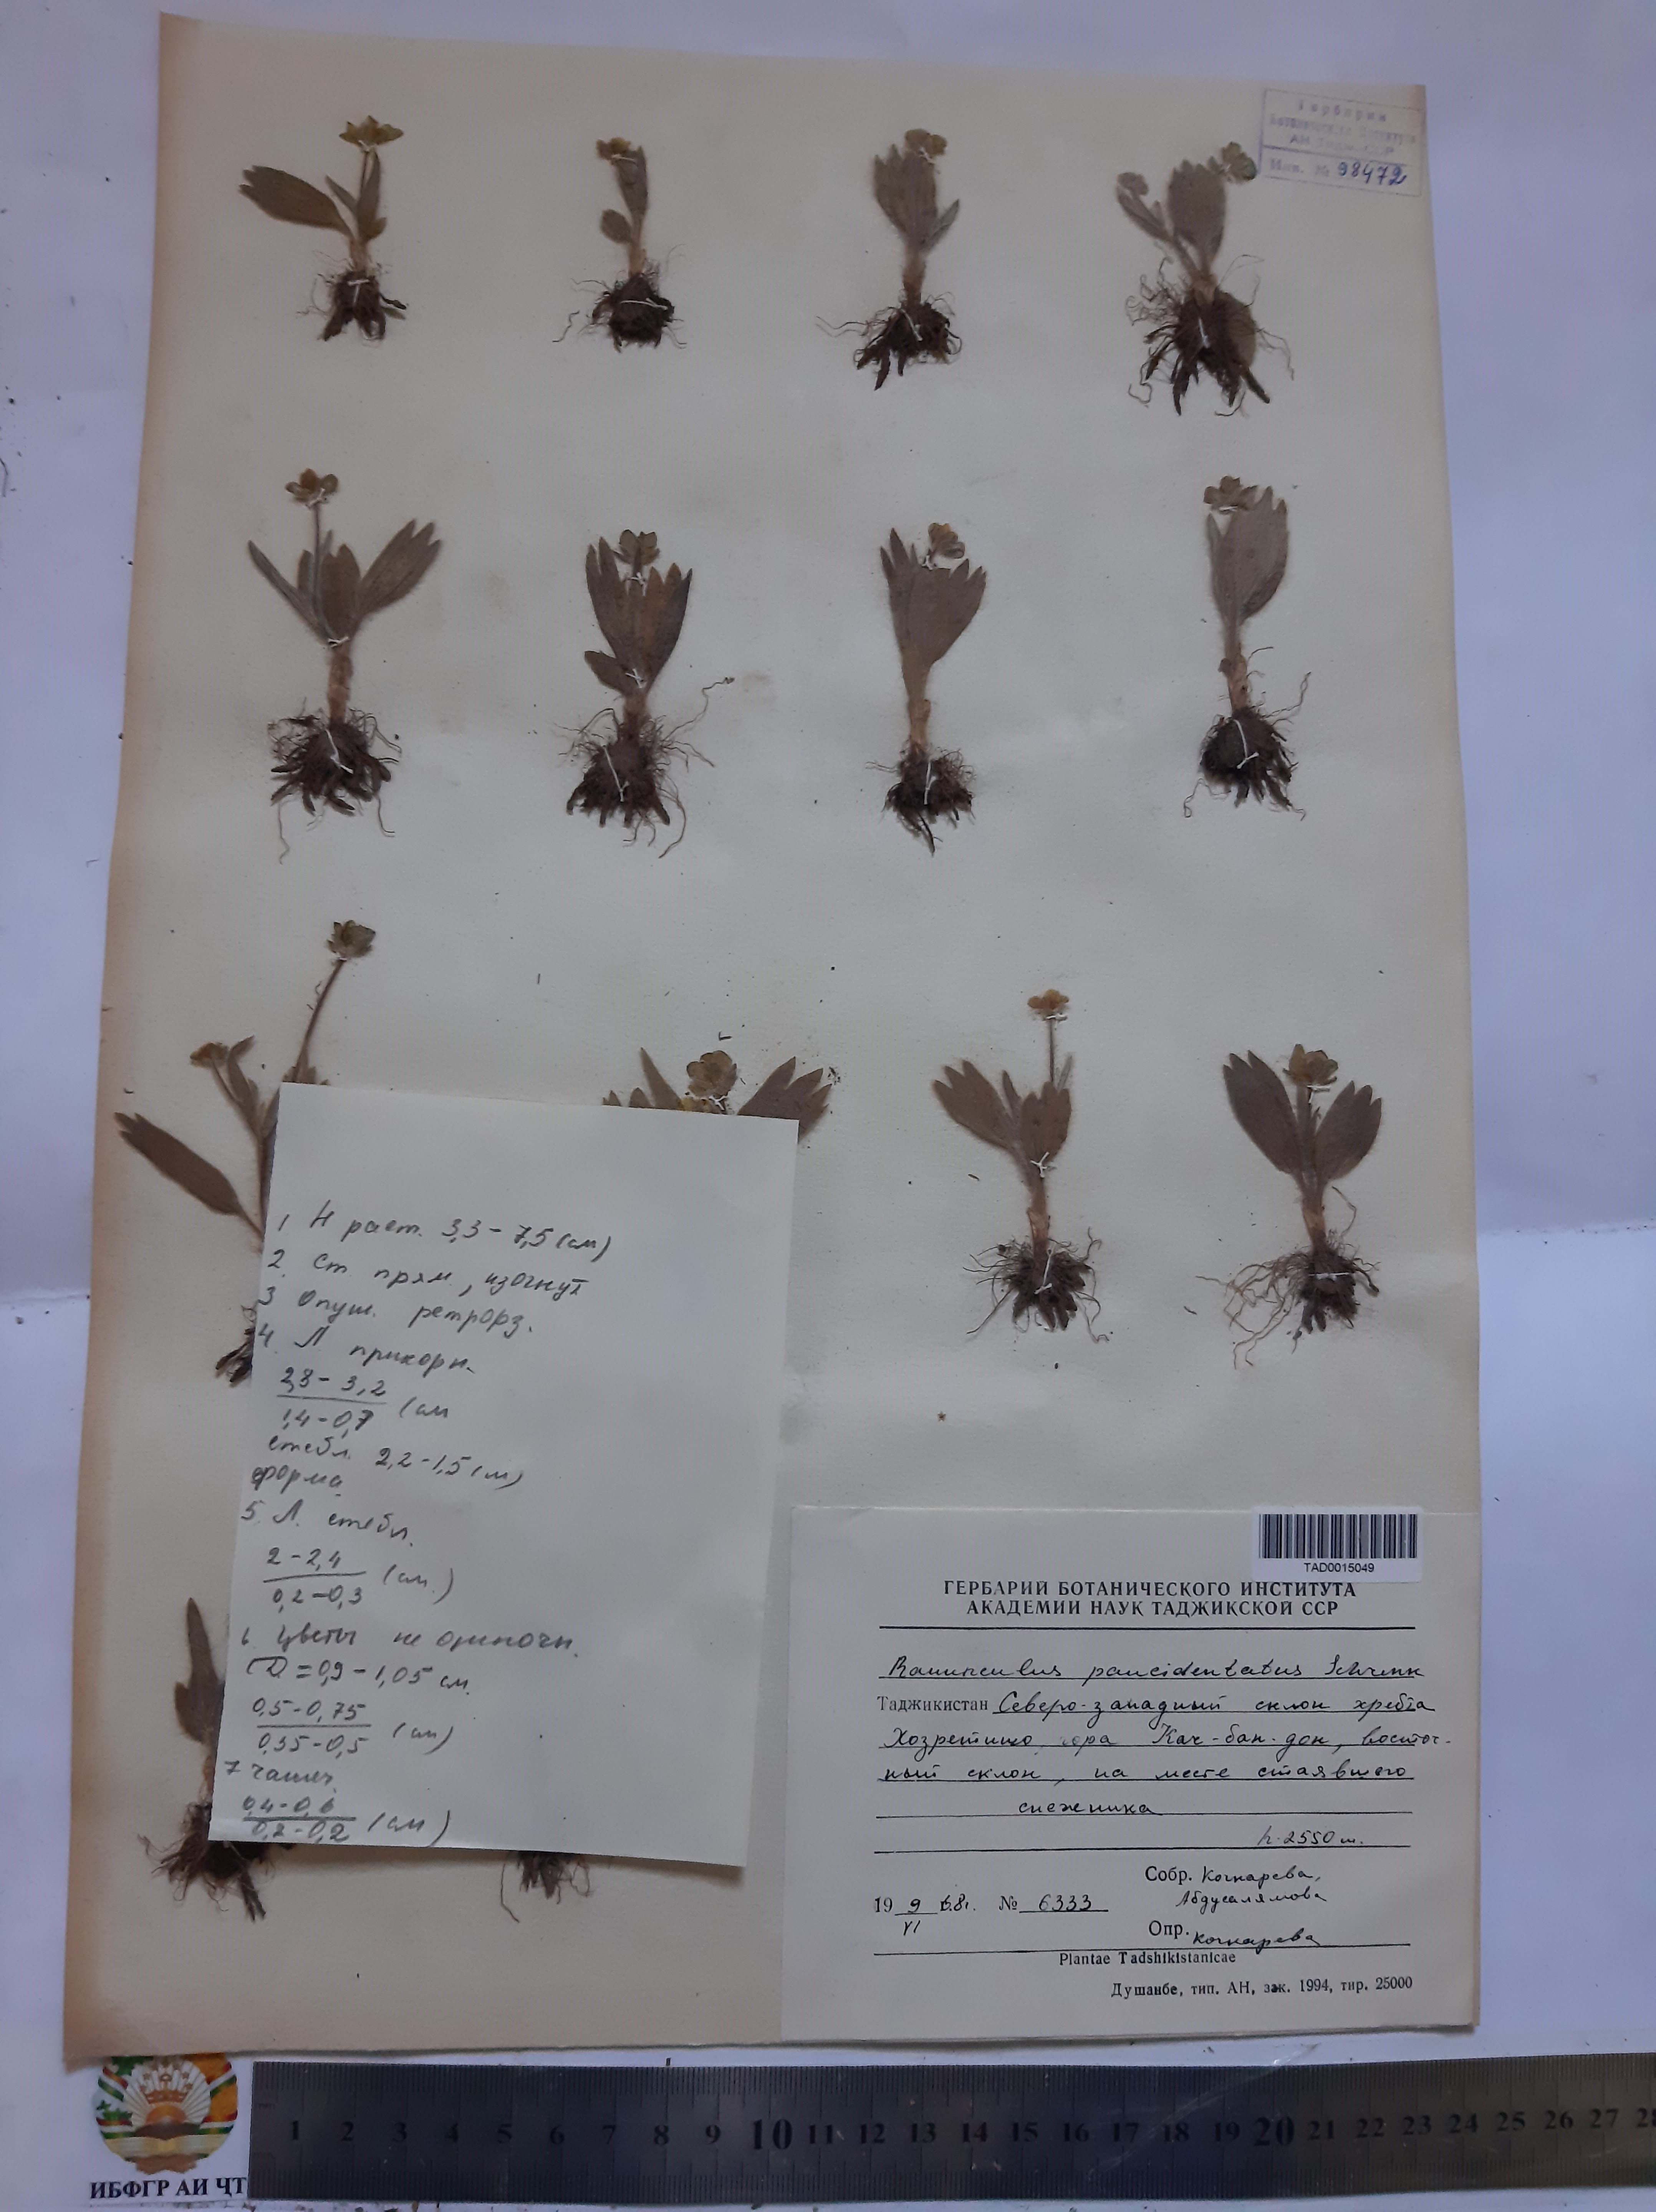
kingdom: Plantae
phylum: Tracheophyta
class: Magnoliopsida
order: Ranunculales
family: Ranunculaceae
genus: Ranunculus
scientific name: Ranunculus paucidentatus
